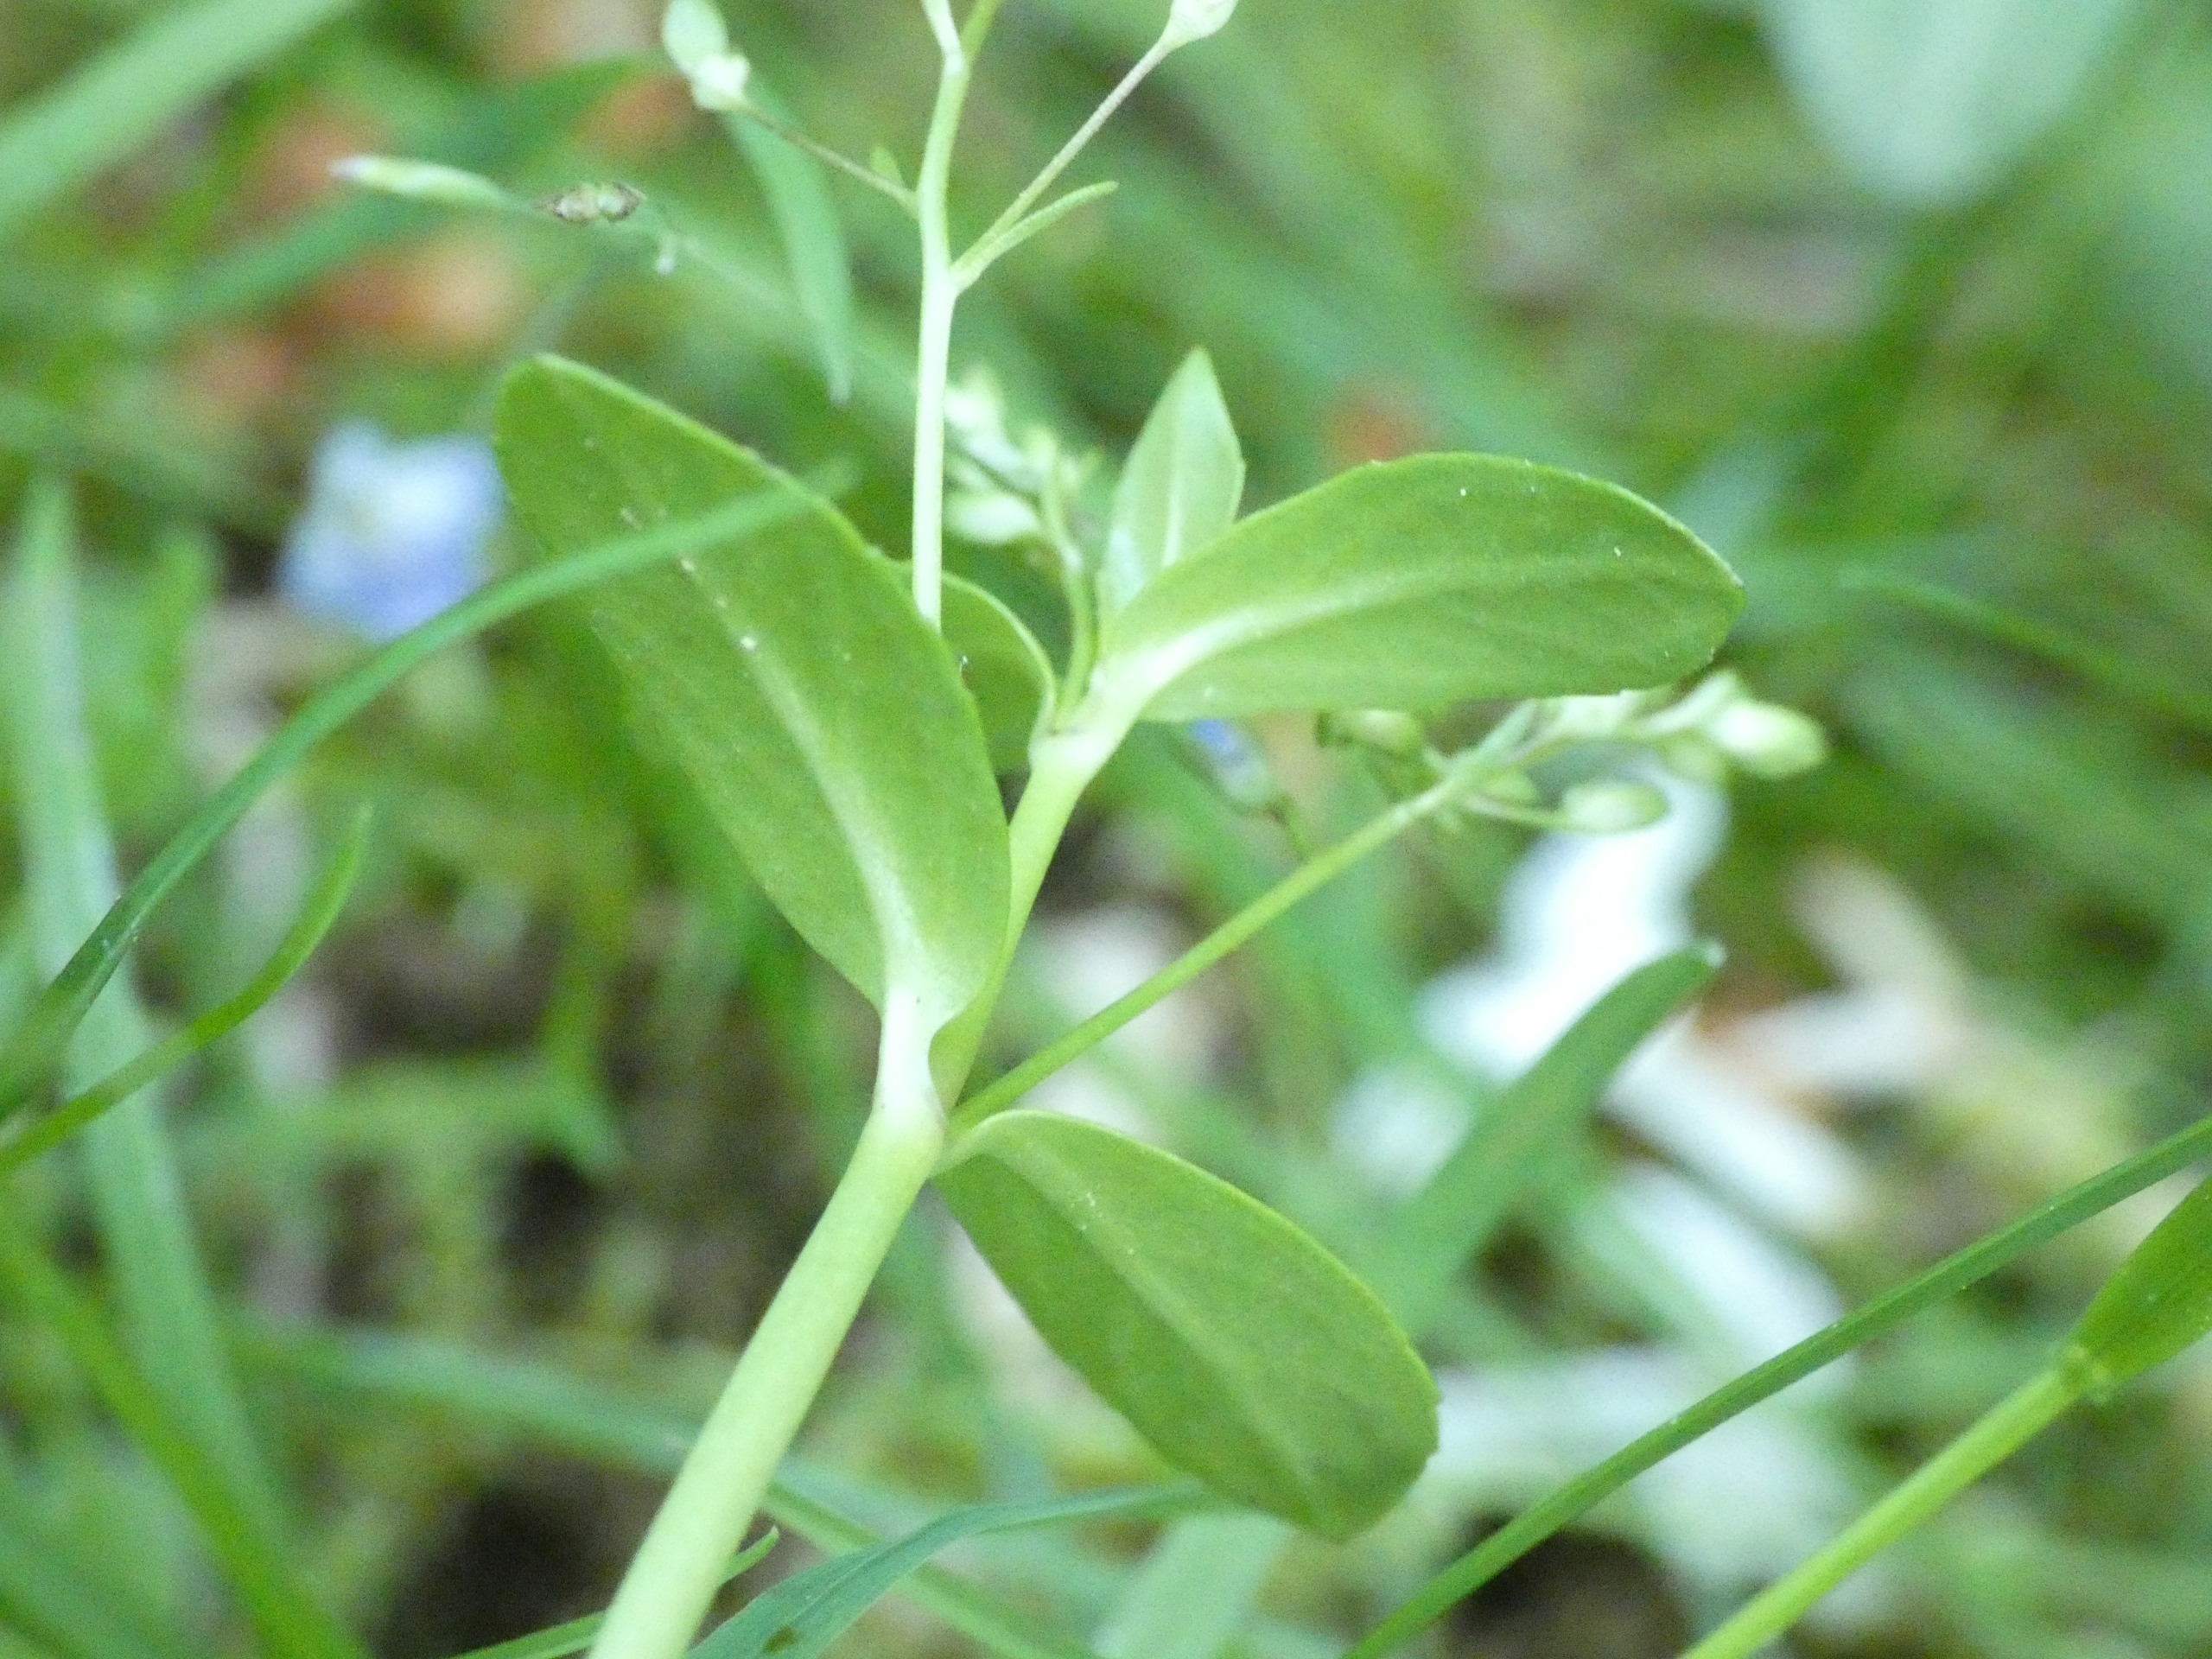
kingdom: Plantae
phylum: Tracheophyta
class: Magnoliopsida
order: Lamiales
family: Plantaginaceae
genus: Veronica
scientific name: Veronica beccabunga
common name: Tykbladet ærenpris
